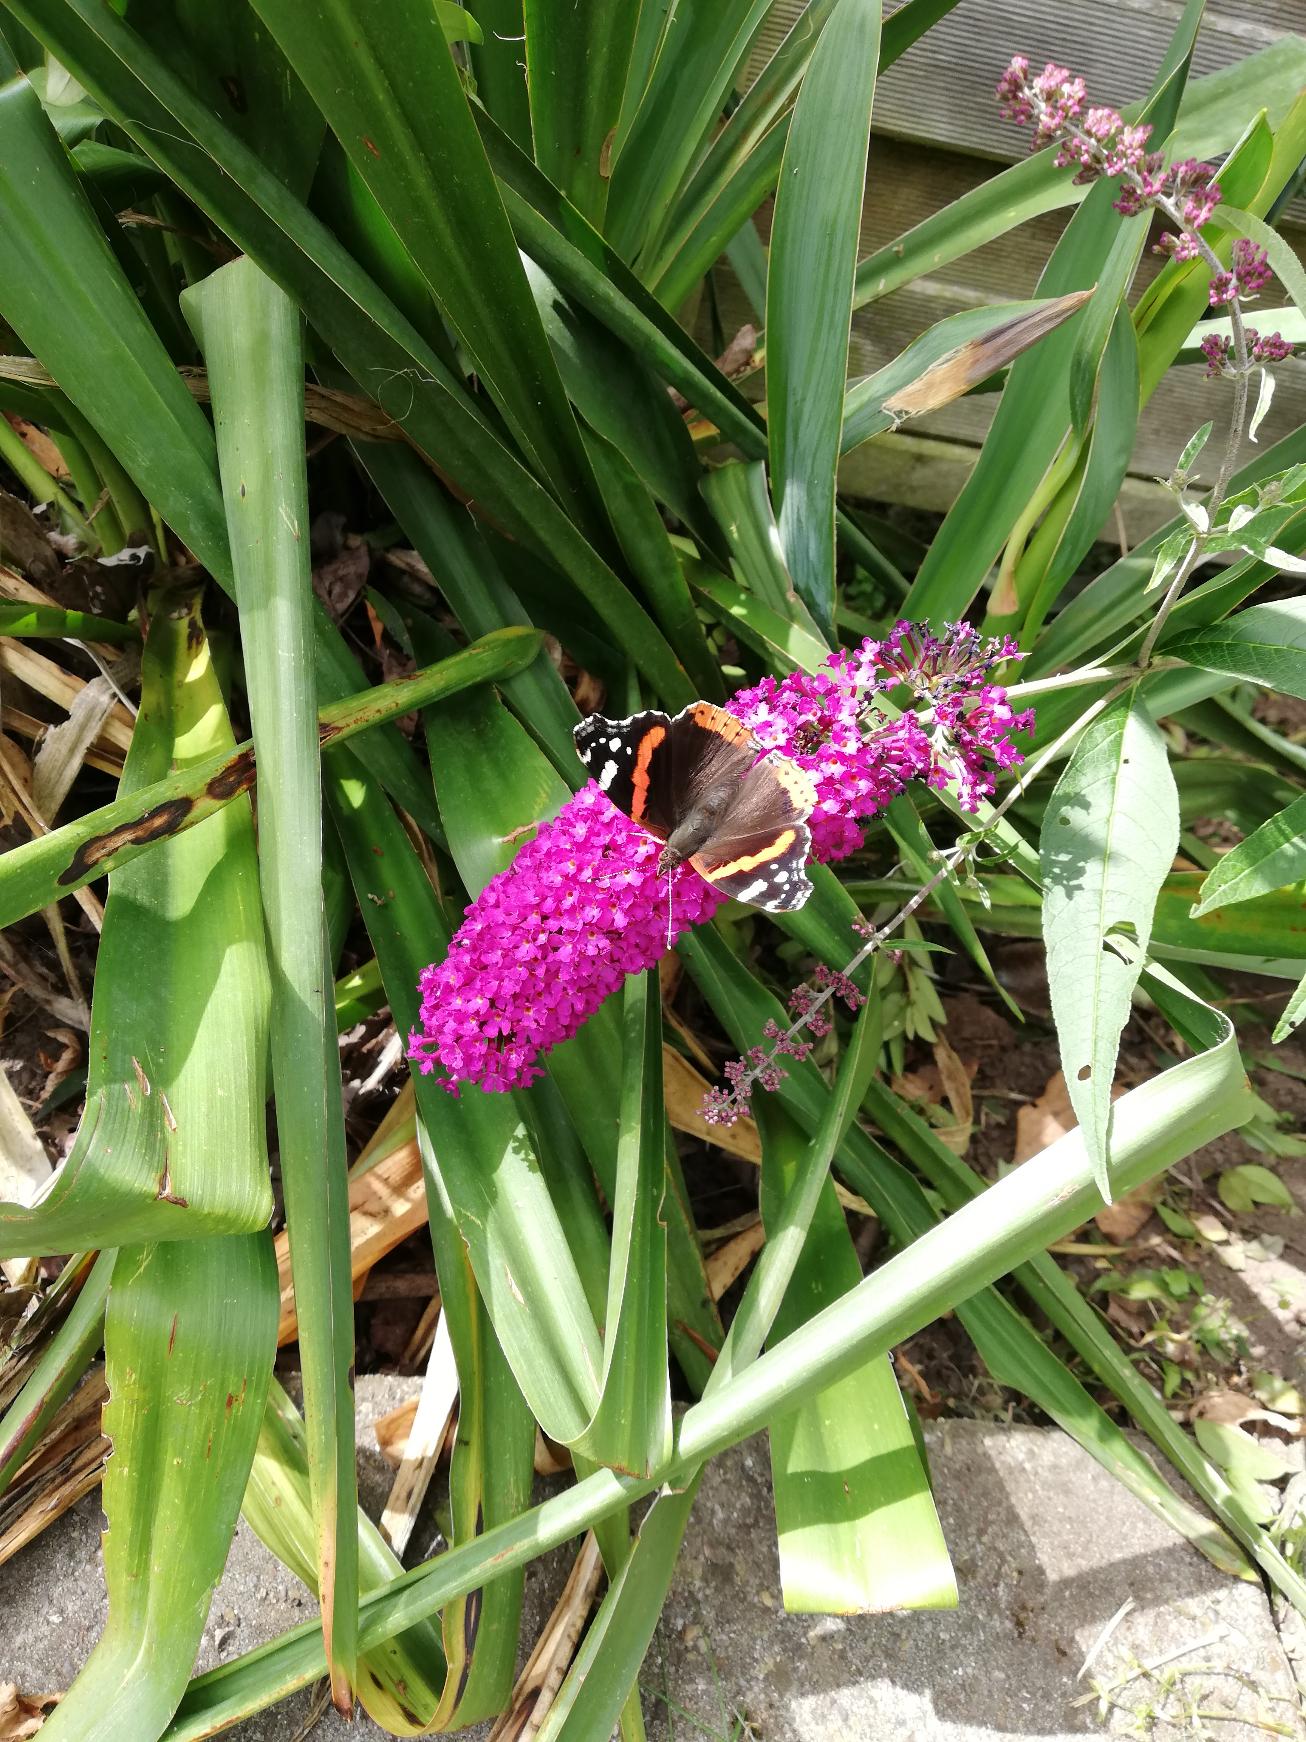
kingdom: Animalia
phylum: Arthropoda
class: Insecta
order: Lepidoptera
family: Nymphalidae
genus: Vanessa
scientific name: Vanessa atalanta
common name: Admiral
